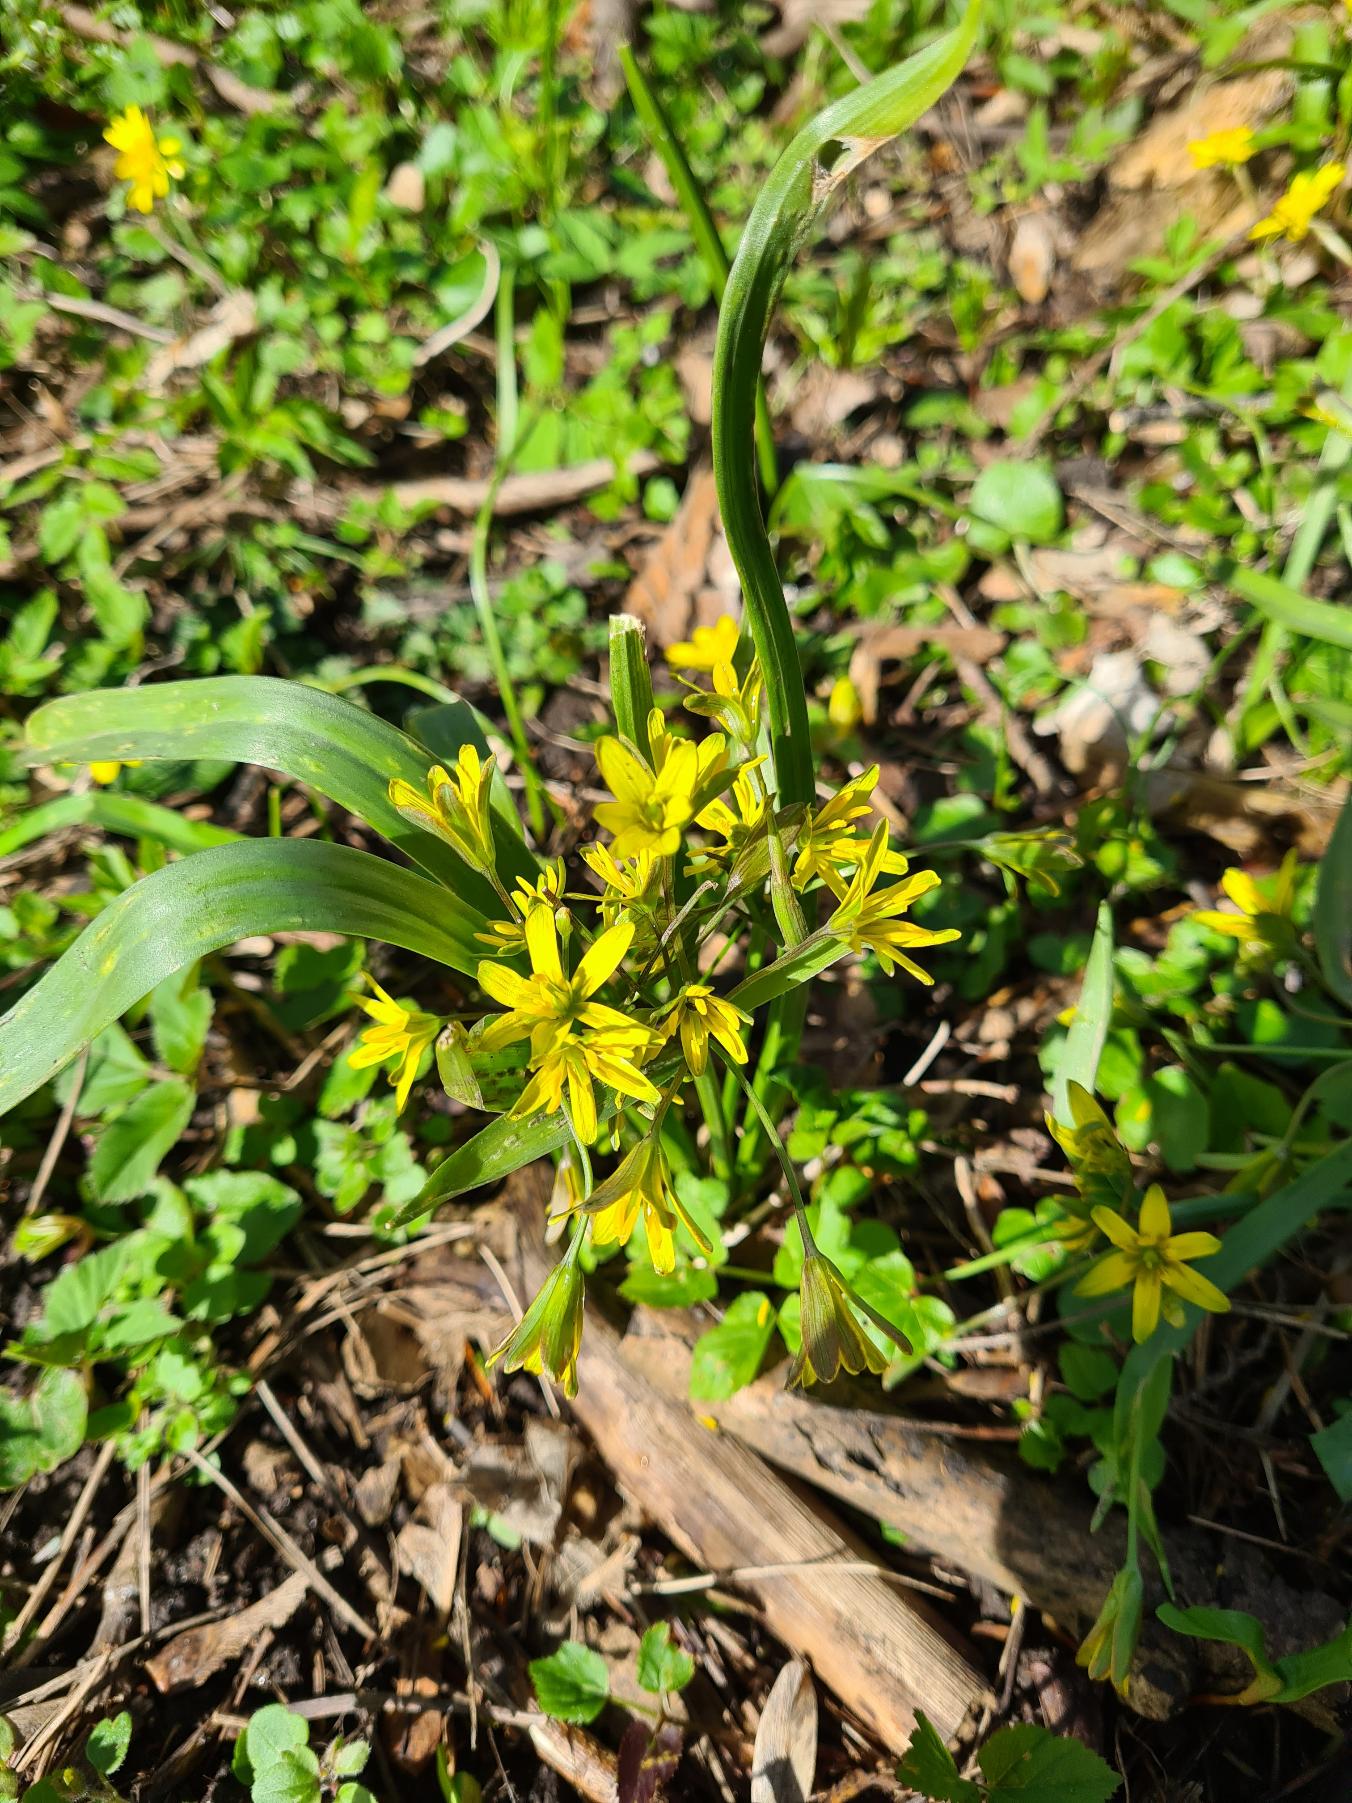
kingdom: Plantae
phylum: Tracheophyta
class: Liliopsida
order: Liliales
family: Liliaceae
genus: Gagea
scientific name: Gagea lutea
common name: Almindelig guldstjerne
